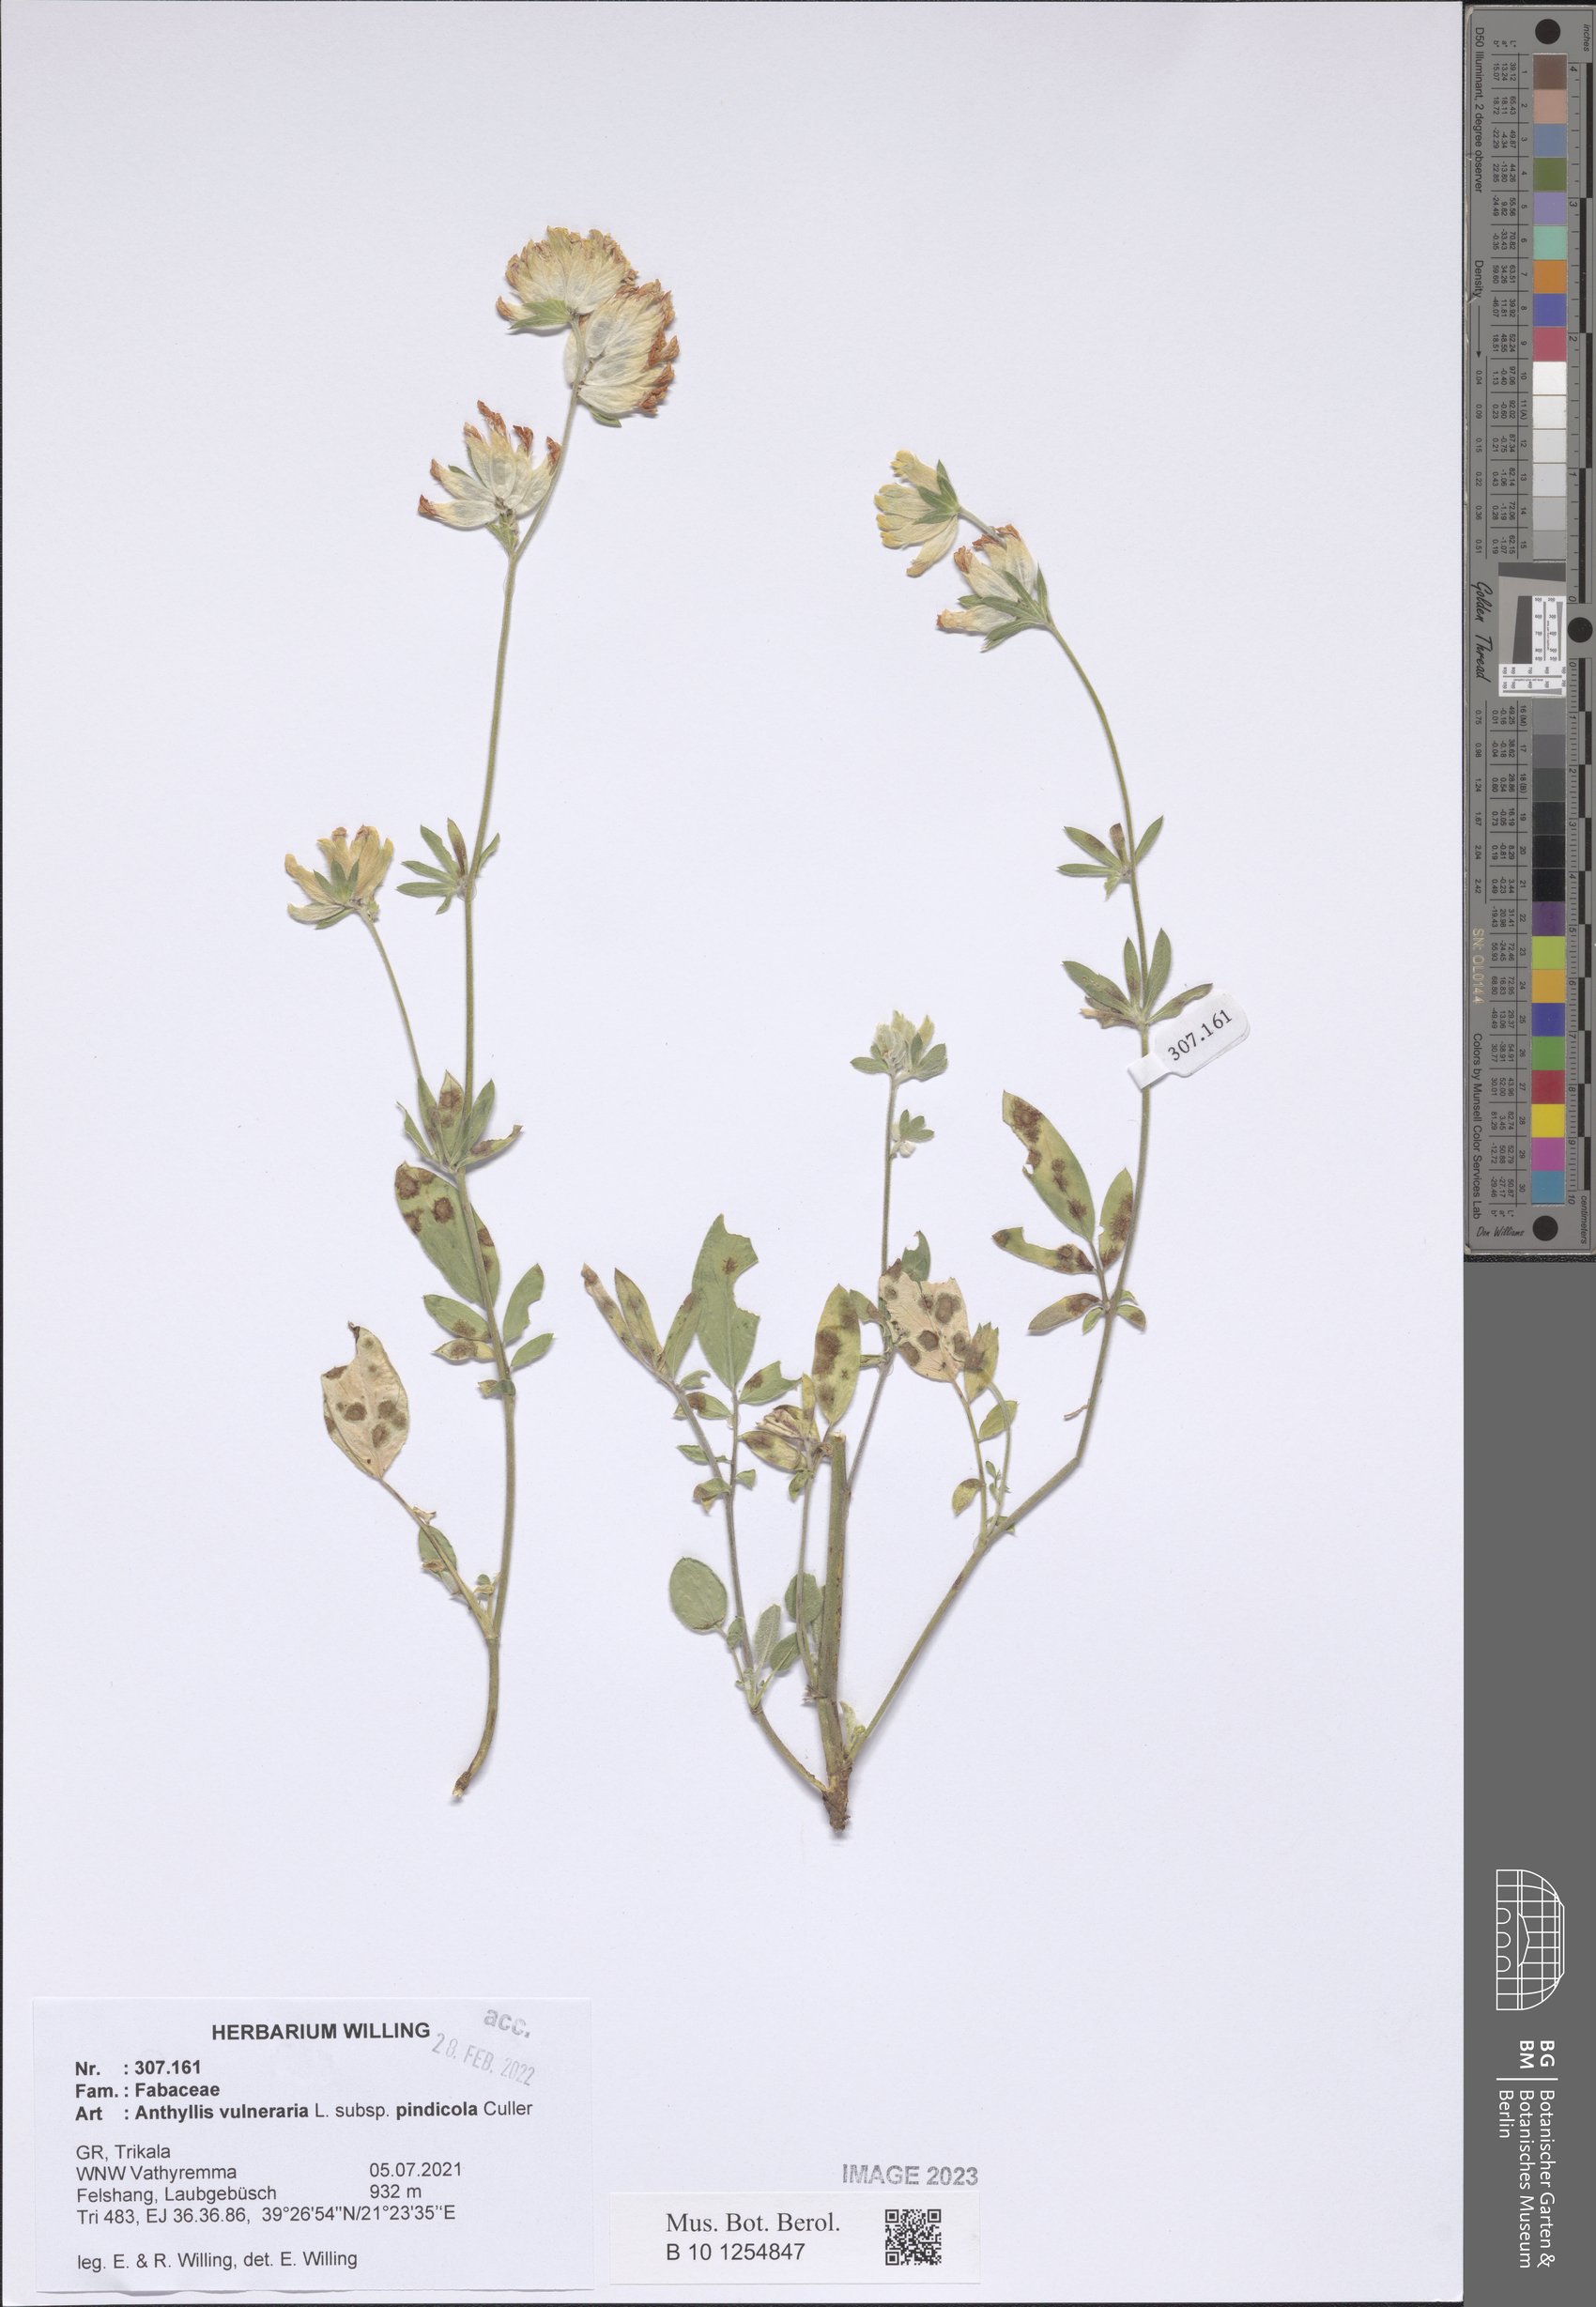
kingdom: Plantae
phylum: Tracheophyta
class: Magnoliopsida
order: Fabales
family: Fabaceae
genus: Anthyllis
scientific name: Anthyllis vulneraria
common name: Kidney vetch
